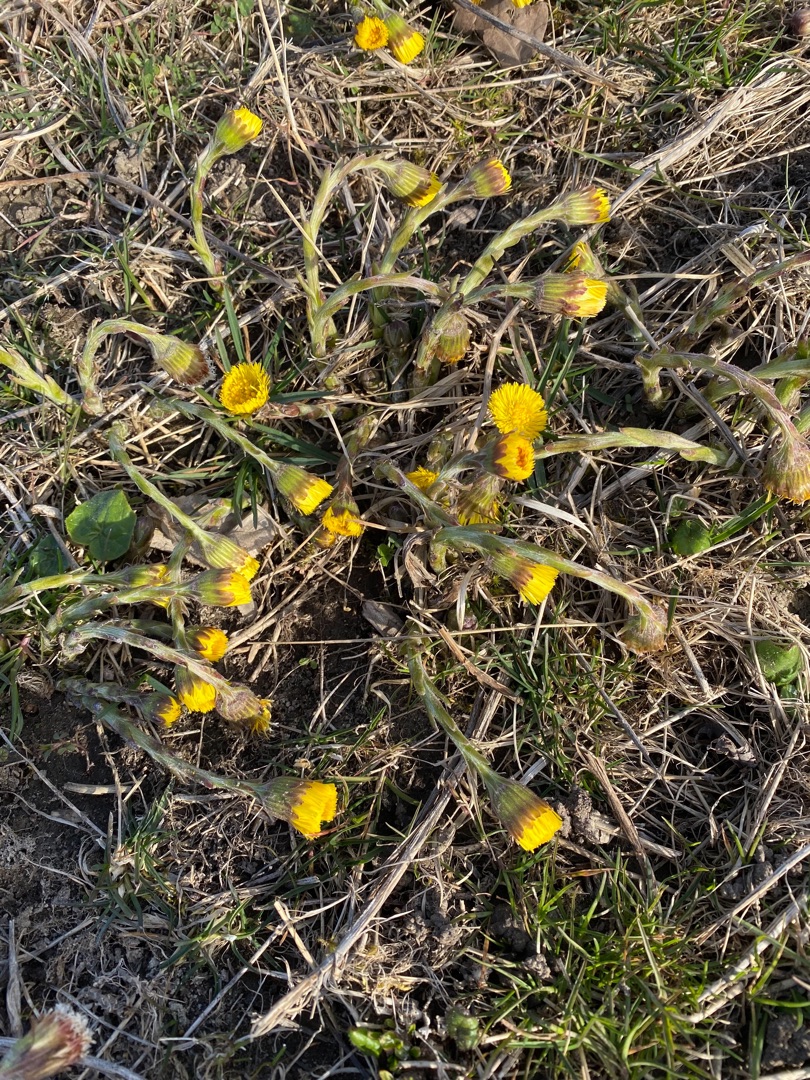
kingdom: Plantae
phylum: Tracheophyta
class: Magnoliopsida
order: Asterales
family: Asteraceae
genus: Tussilago
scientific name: Tussilago farfara
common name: Følfod
